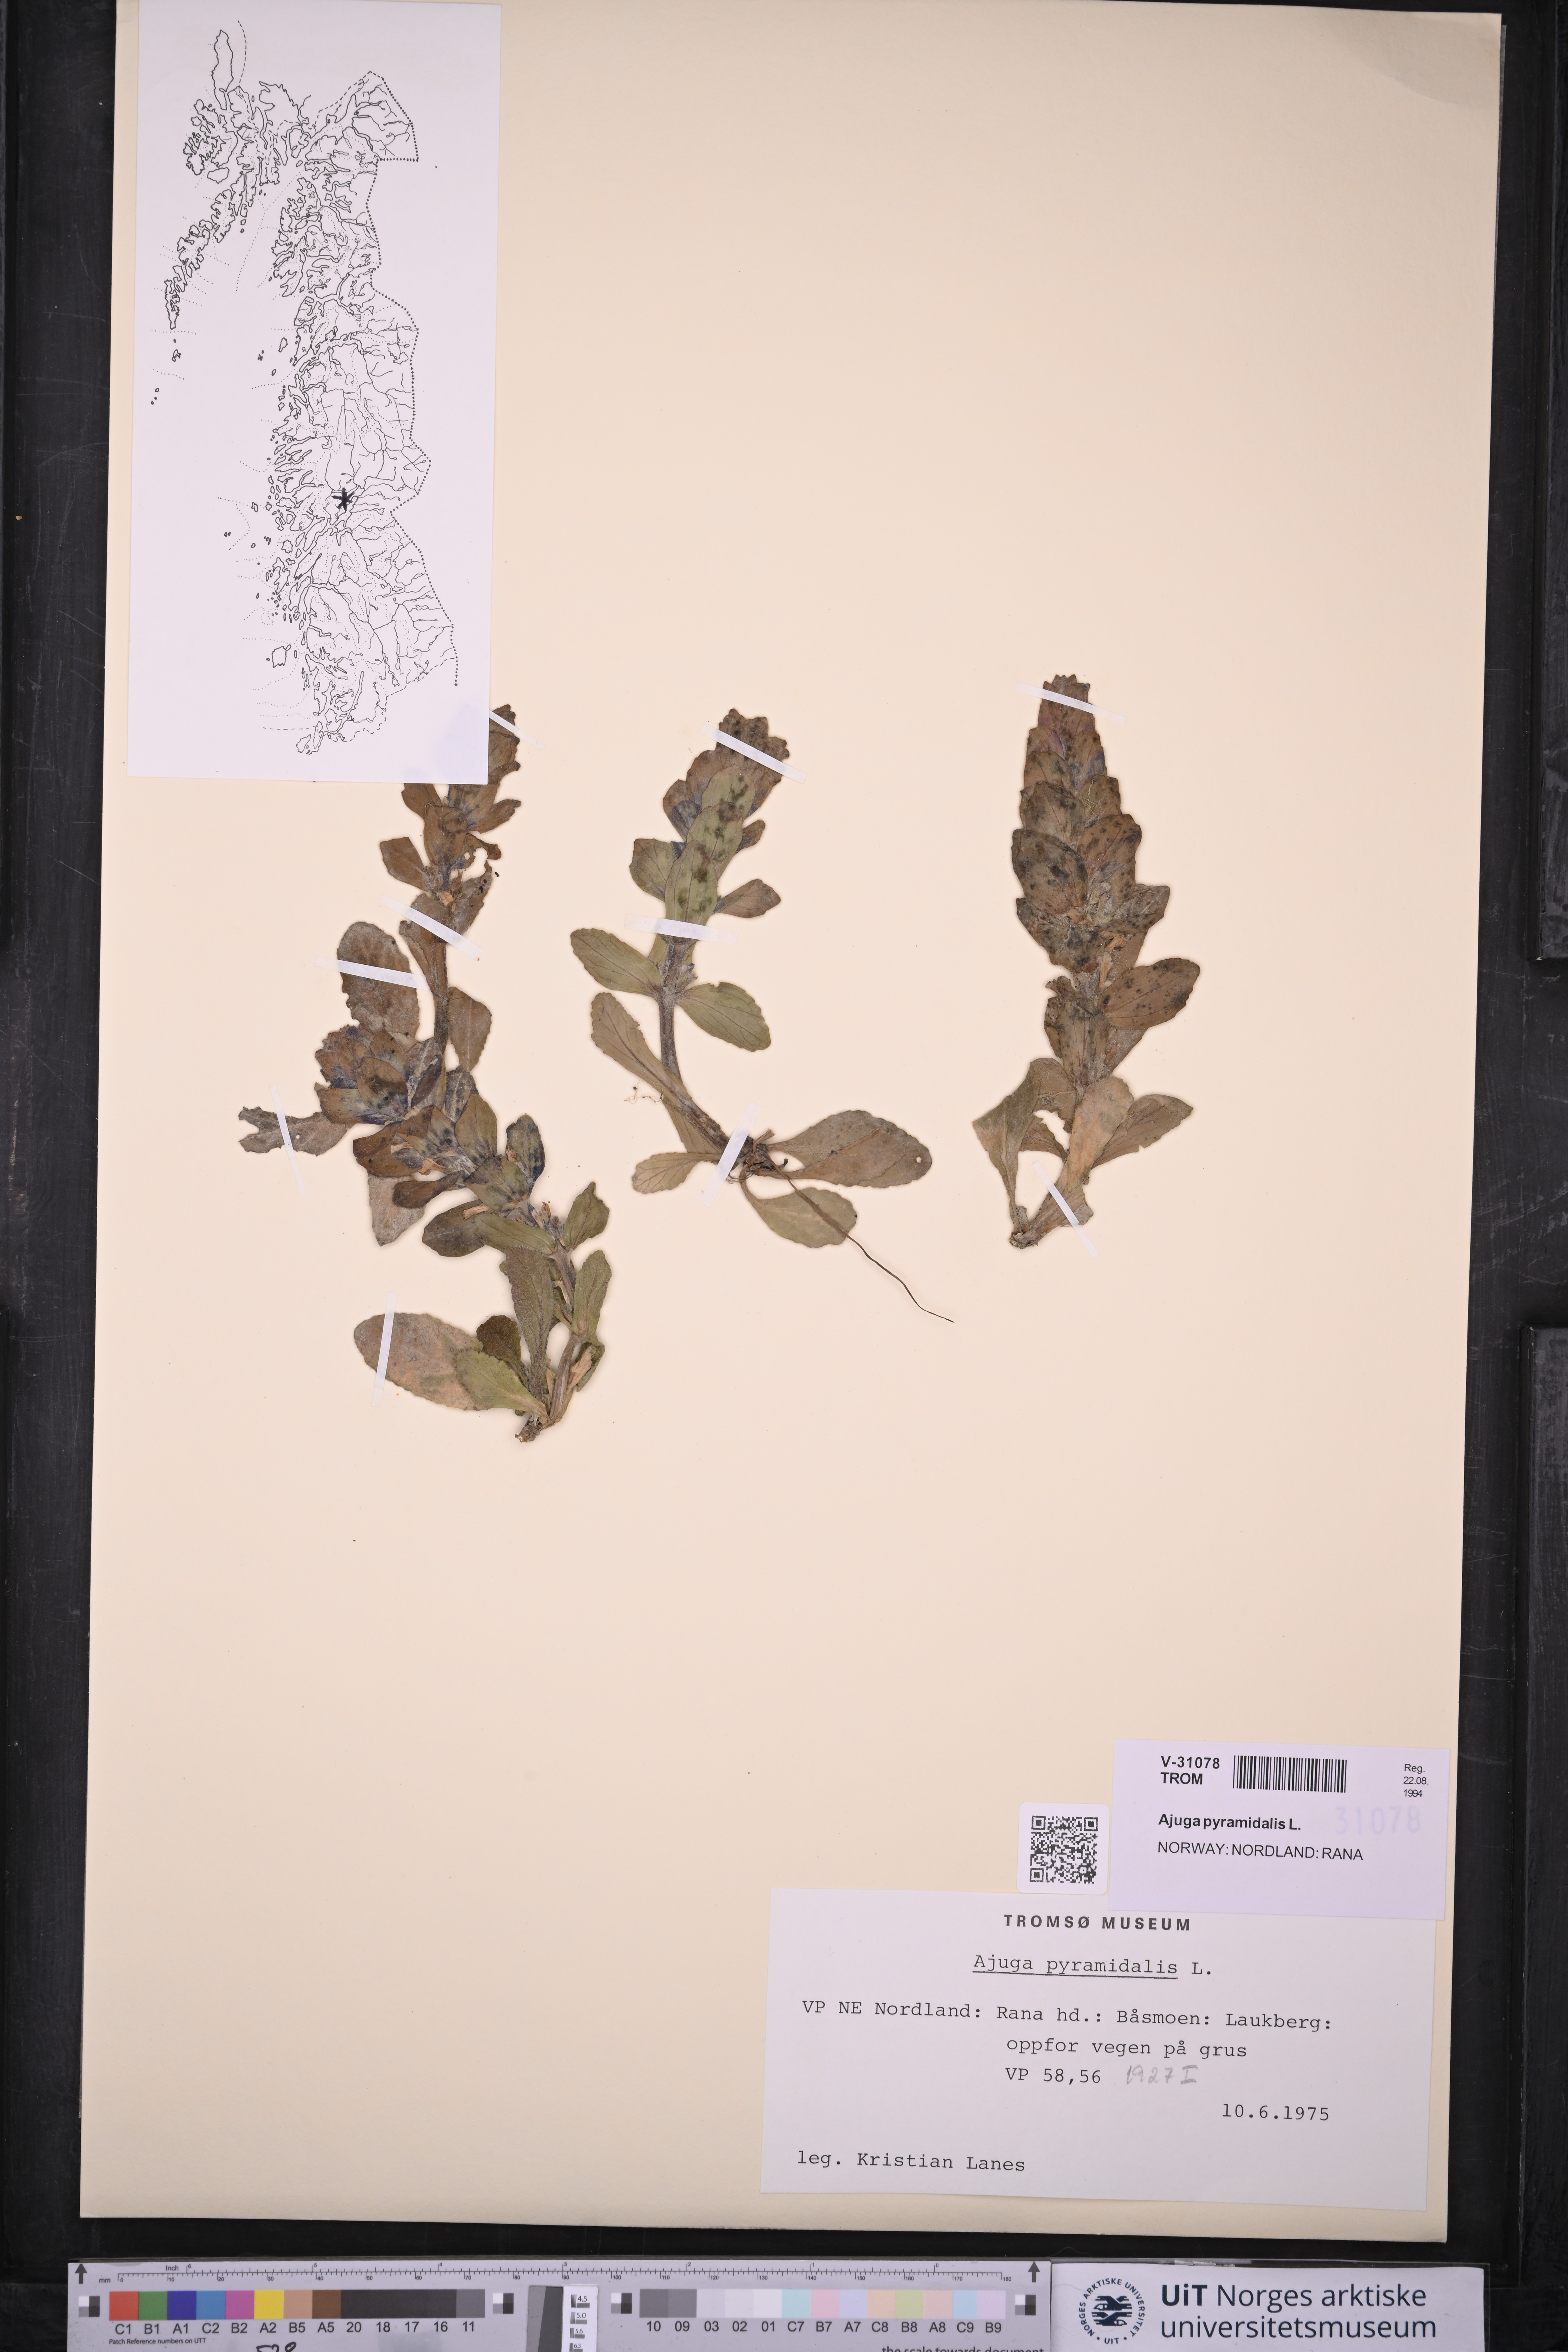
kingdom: Plantae
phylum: Tracheophyta
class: Magnoliopsida
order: Lamiales
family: Lamiaceae
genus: Ajuga
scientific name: Ajuga pyramidalis
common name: Pyramid bugle
